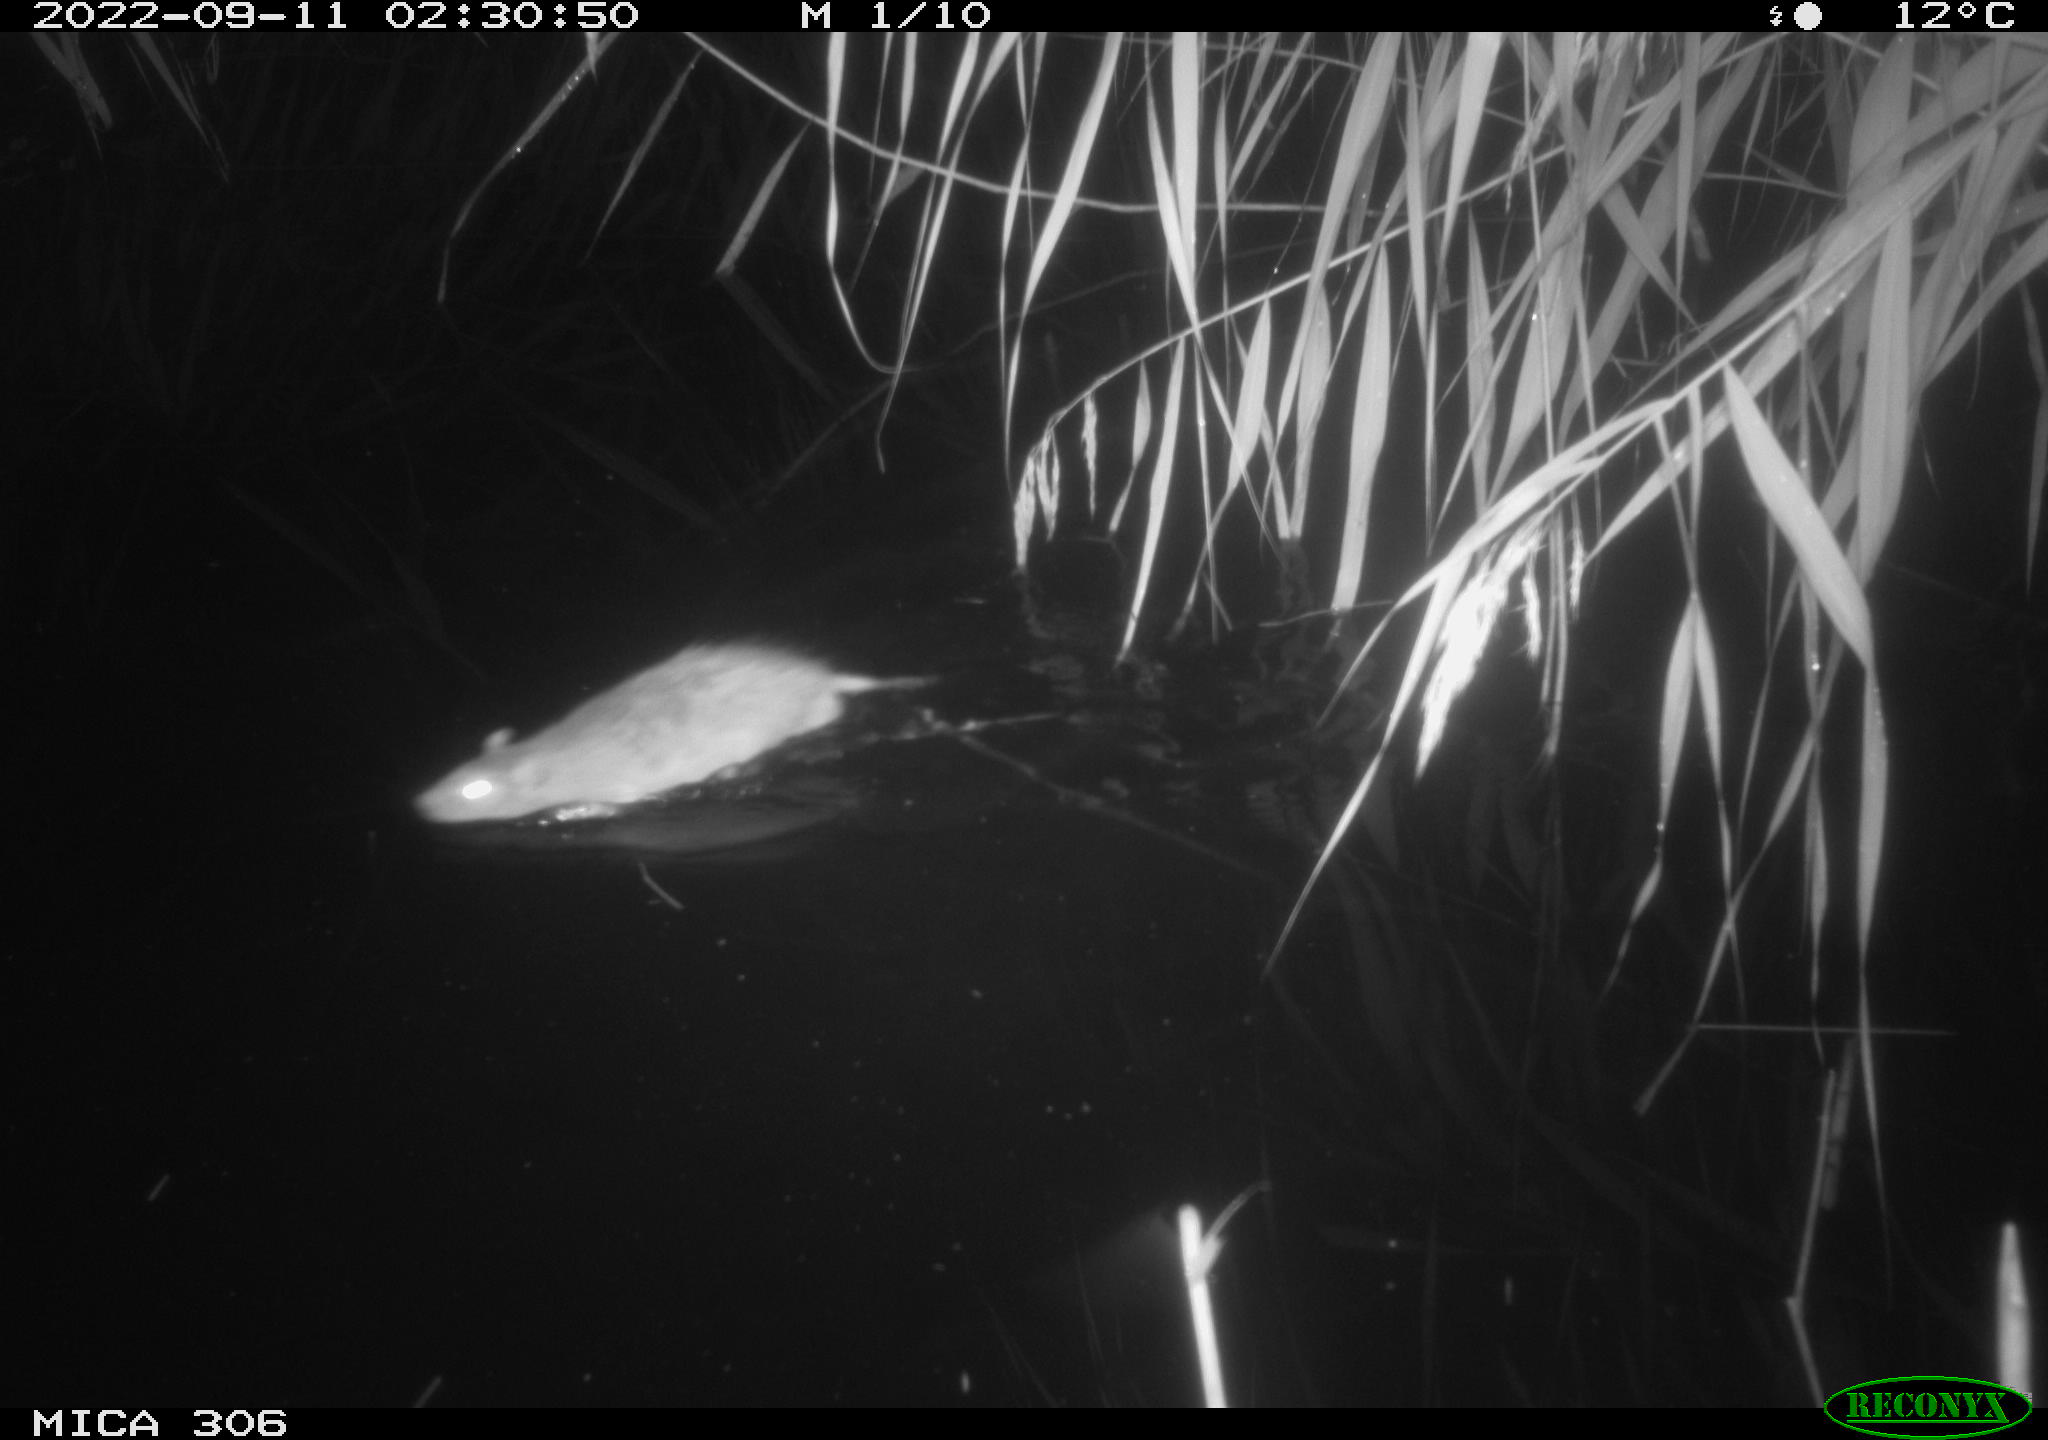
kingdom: Animalia
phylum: Chordata
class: Mammalia
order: Rodentia
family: Muridae
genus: Rattus
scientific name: Rattus norvegicus
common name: Brown rat
